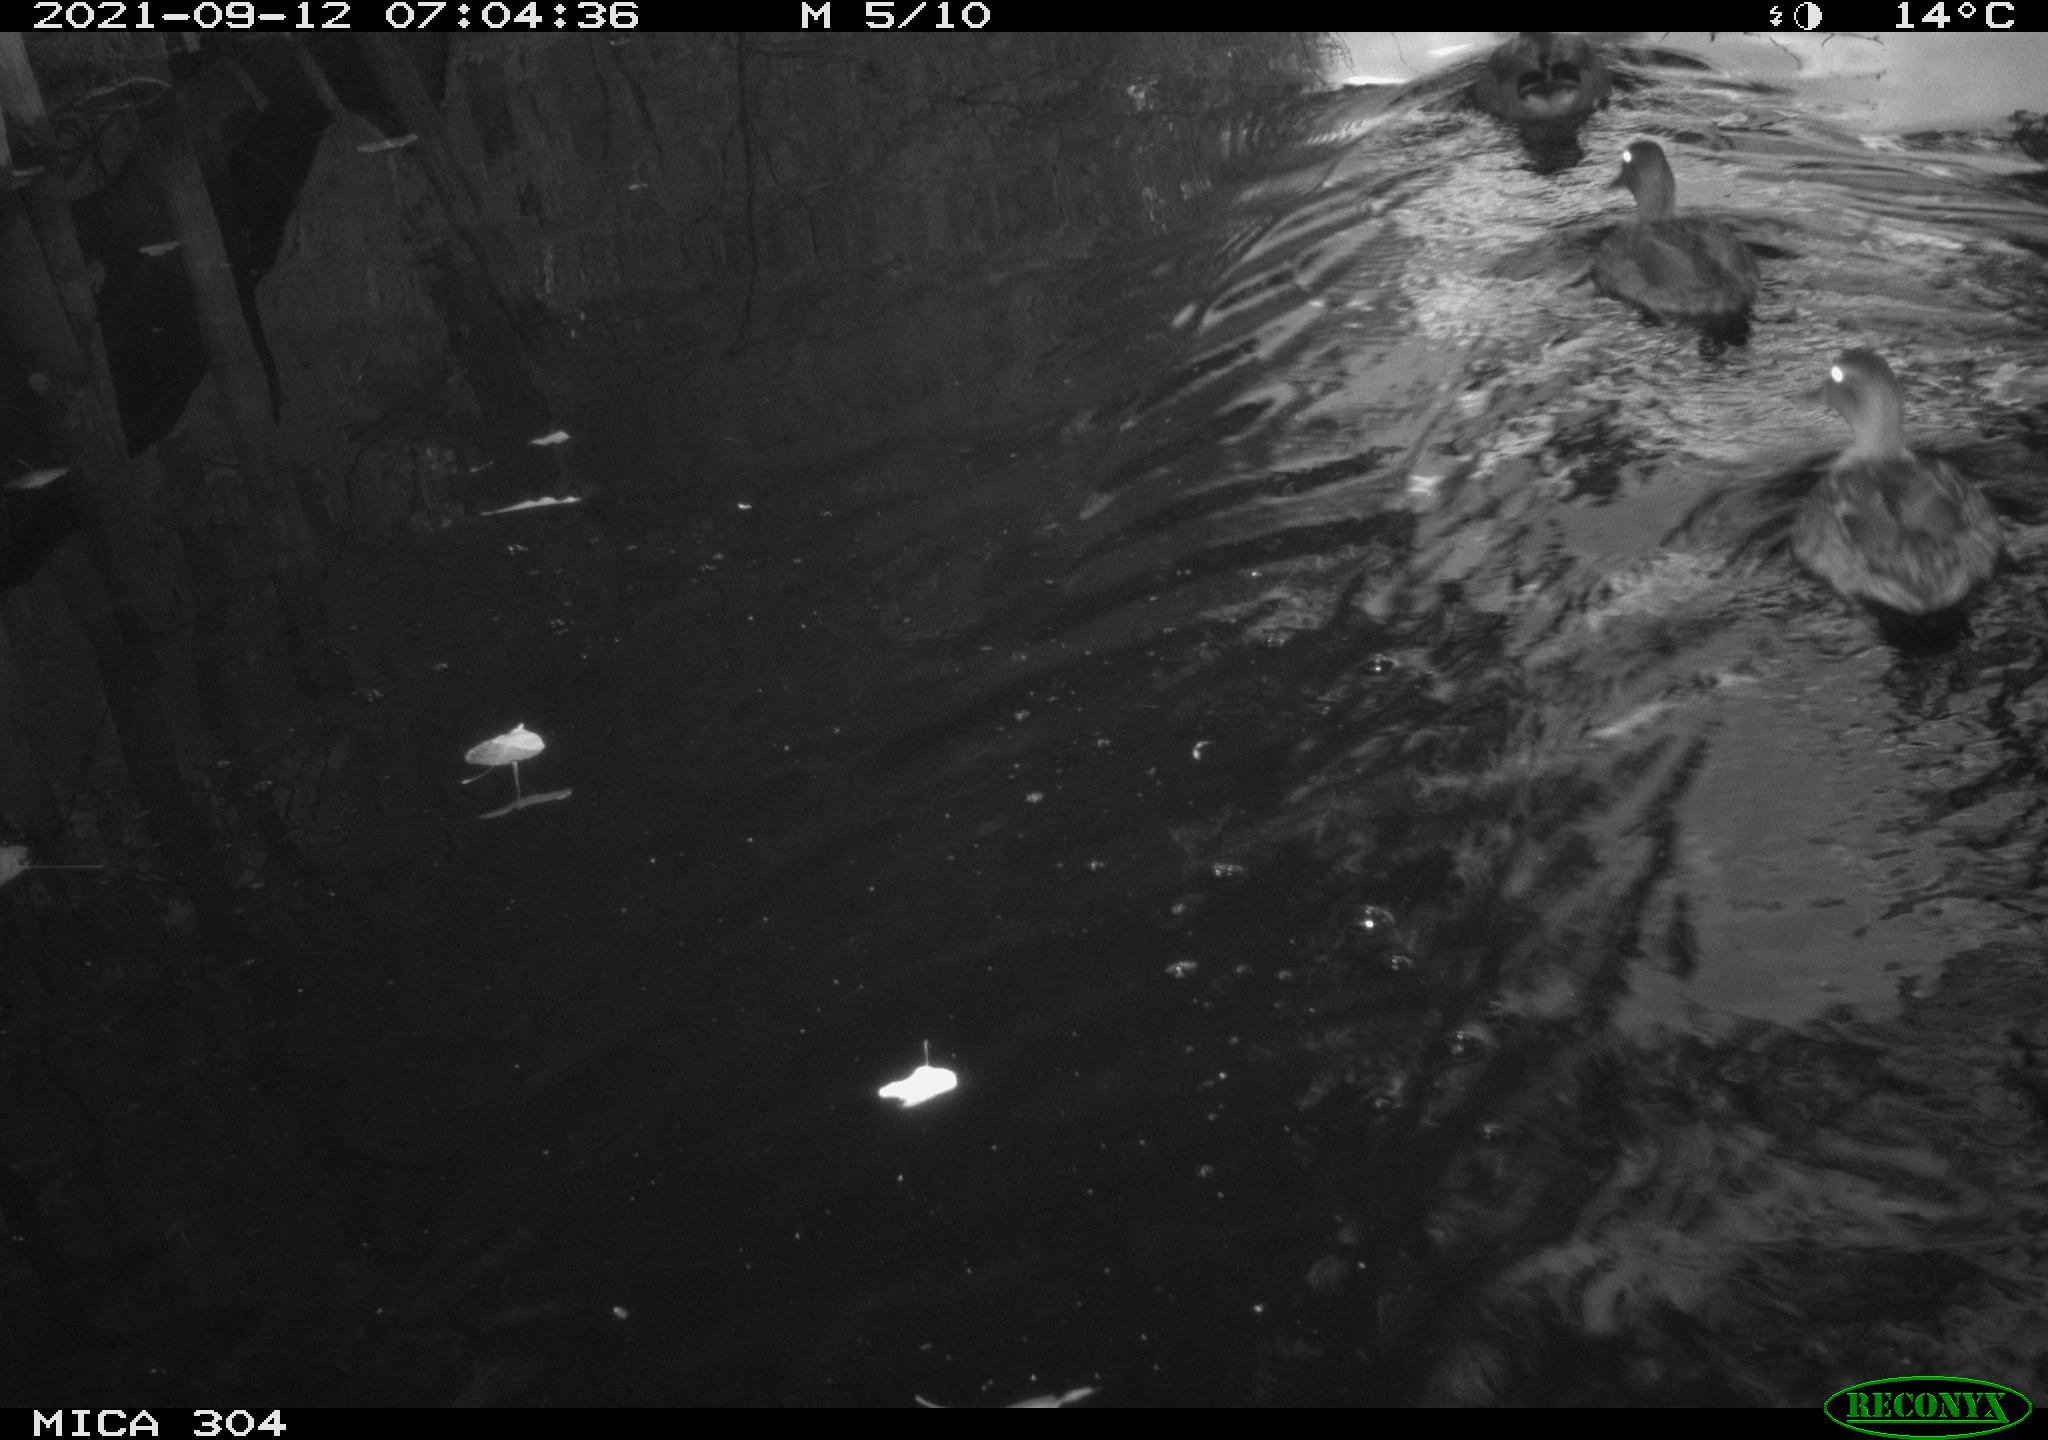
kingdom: Animalia
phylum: Chordata
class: Aves
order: Gruiformes
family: Rallidae
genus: Fulica
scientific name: Fulica atra
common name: Eurasian coot
